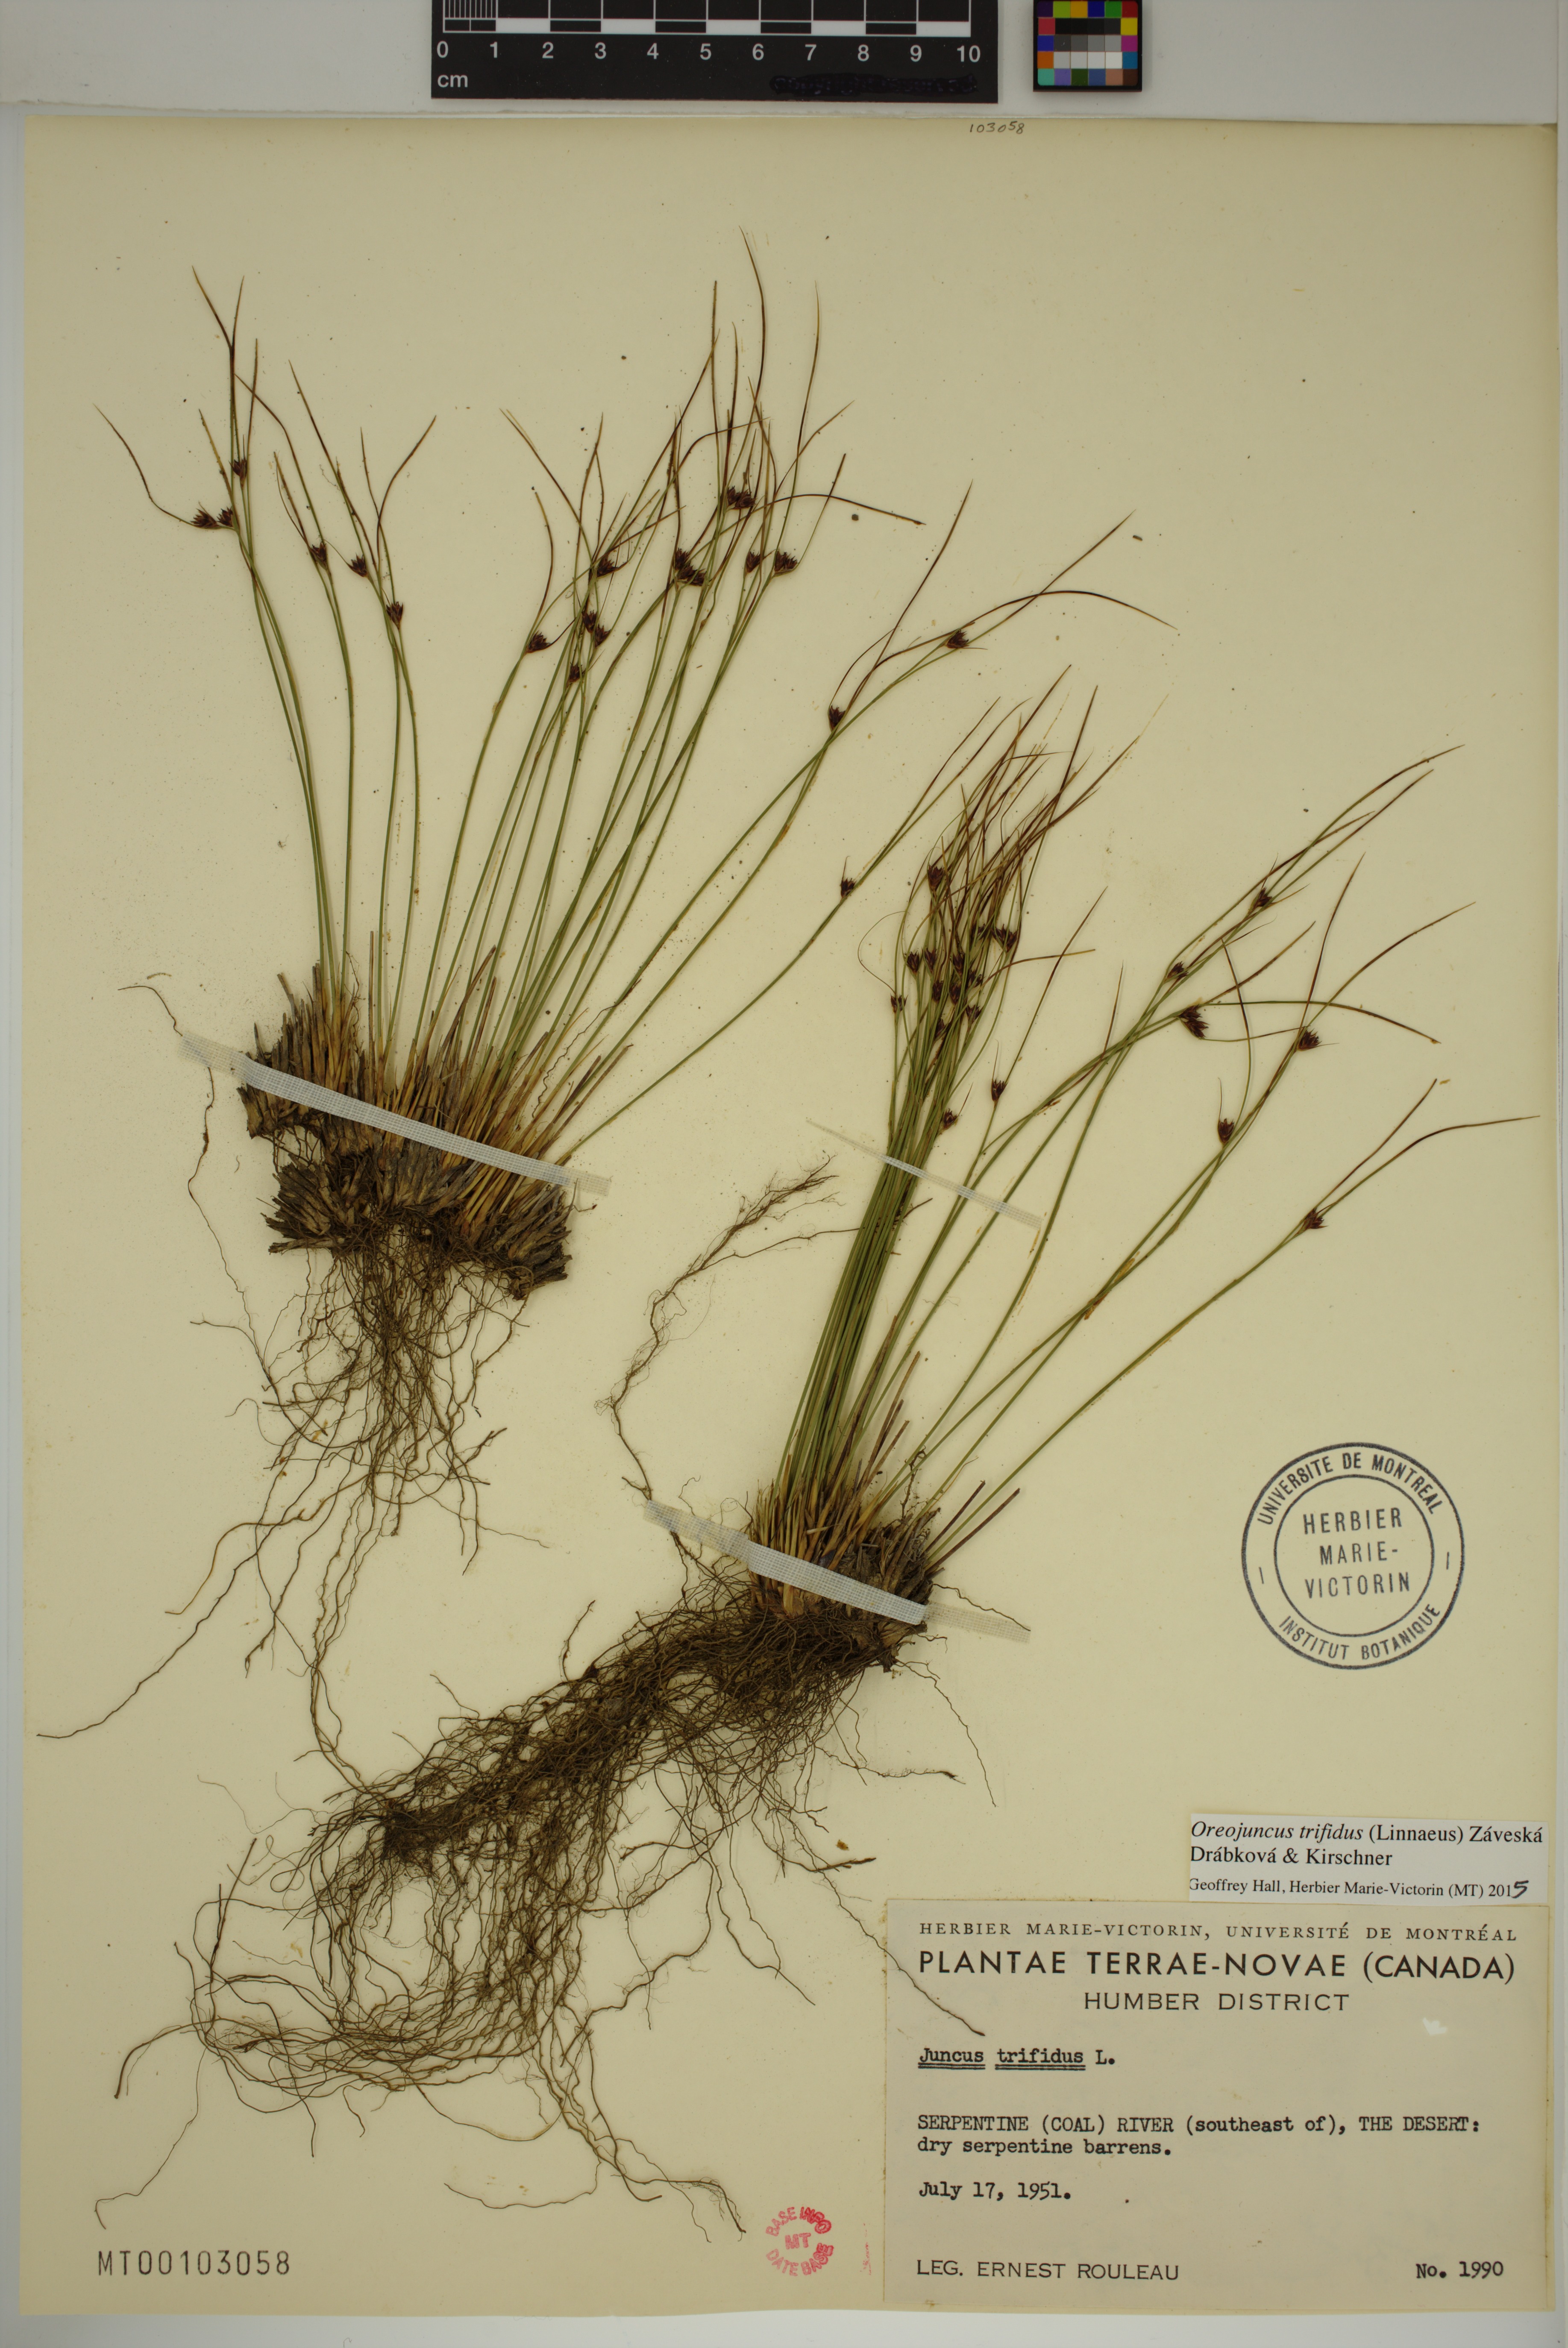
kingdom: Plantae
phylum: Tracheophyta
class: Liliopsida
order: Poales
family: Juncaceae
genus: Oreojuncus
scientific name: Oreojuncus trifidus
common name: Highland rush
